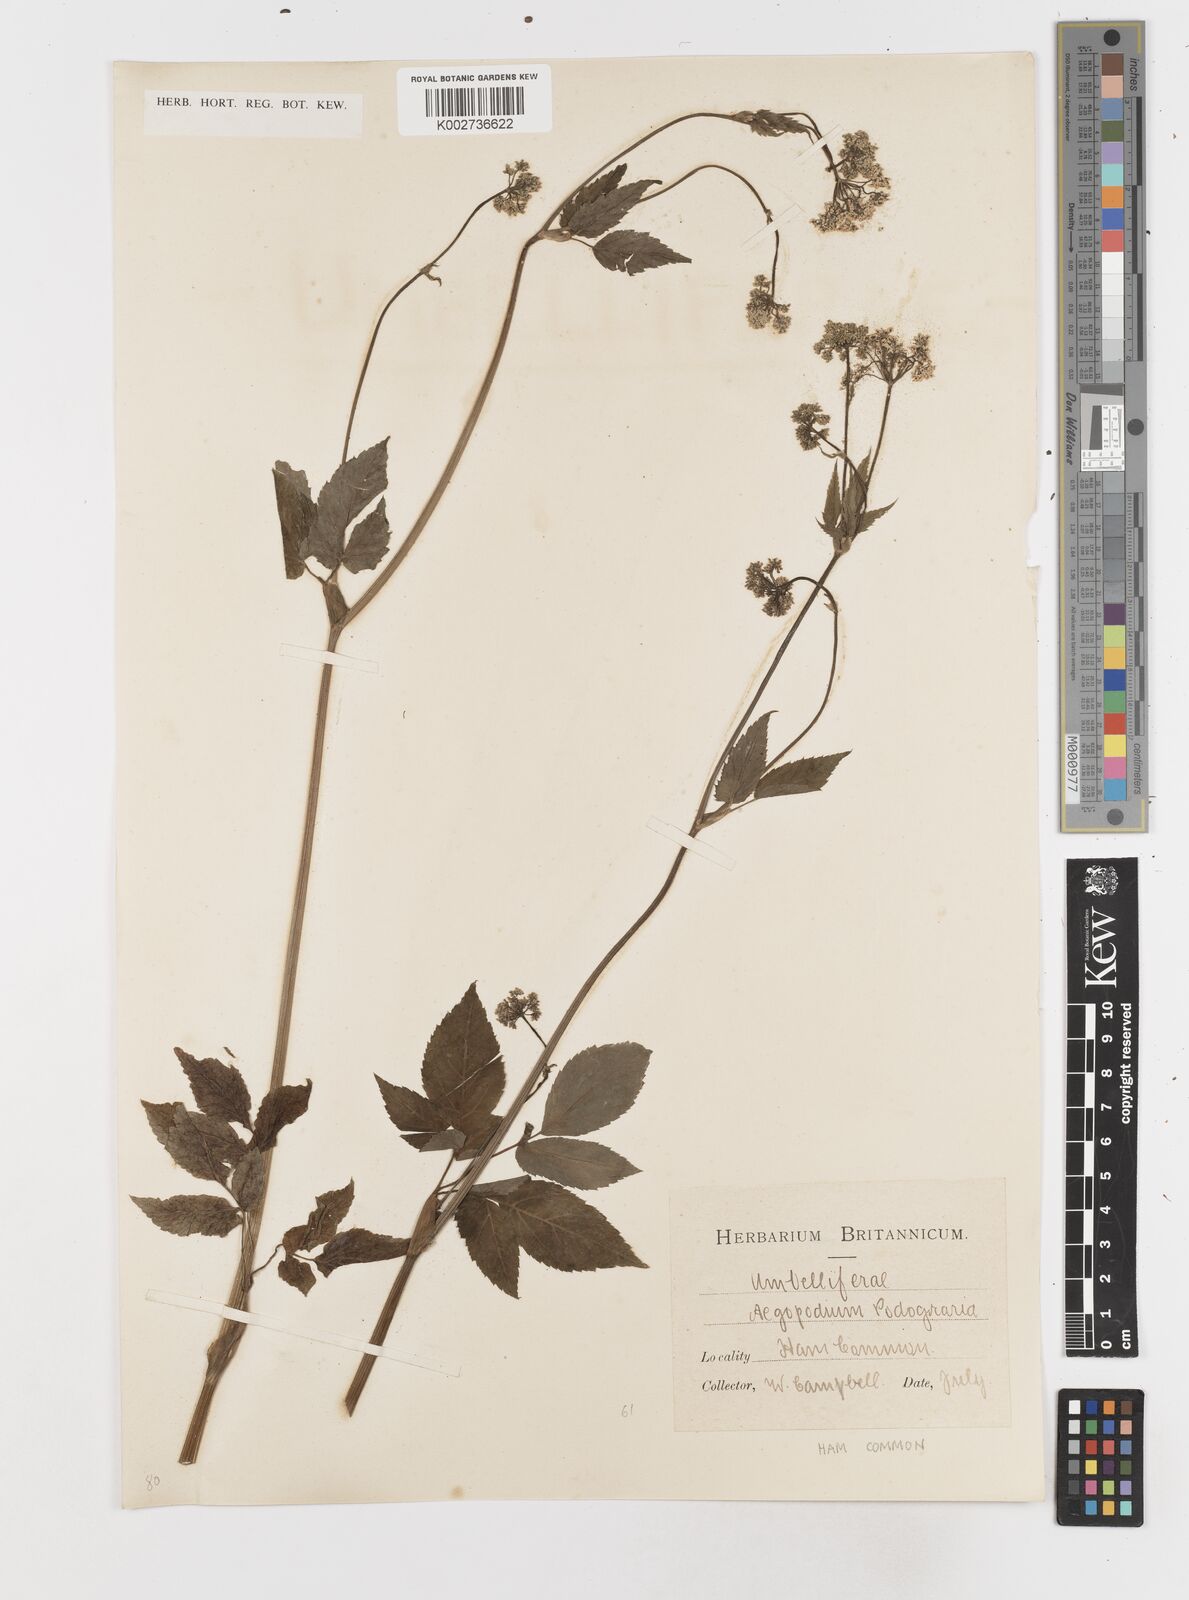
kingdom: Plantae
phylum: Tracheophyta
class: Magnoliopsida
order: Apiales
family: Apiaceae
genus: Aegopodium
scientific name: Aegopodium podagraria
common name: Ground-elder
